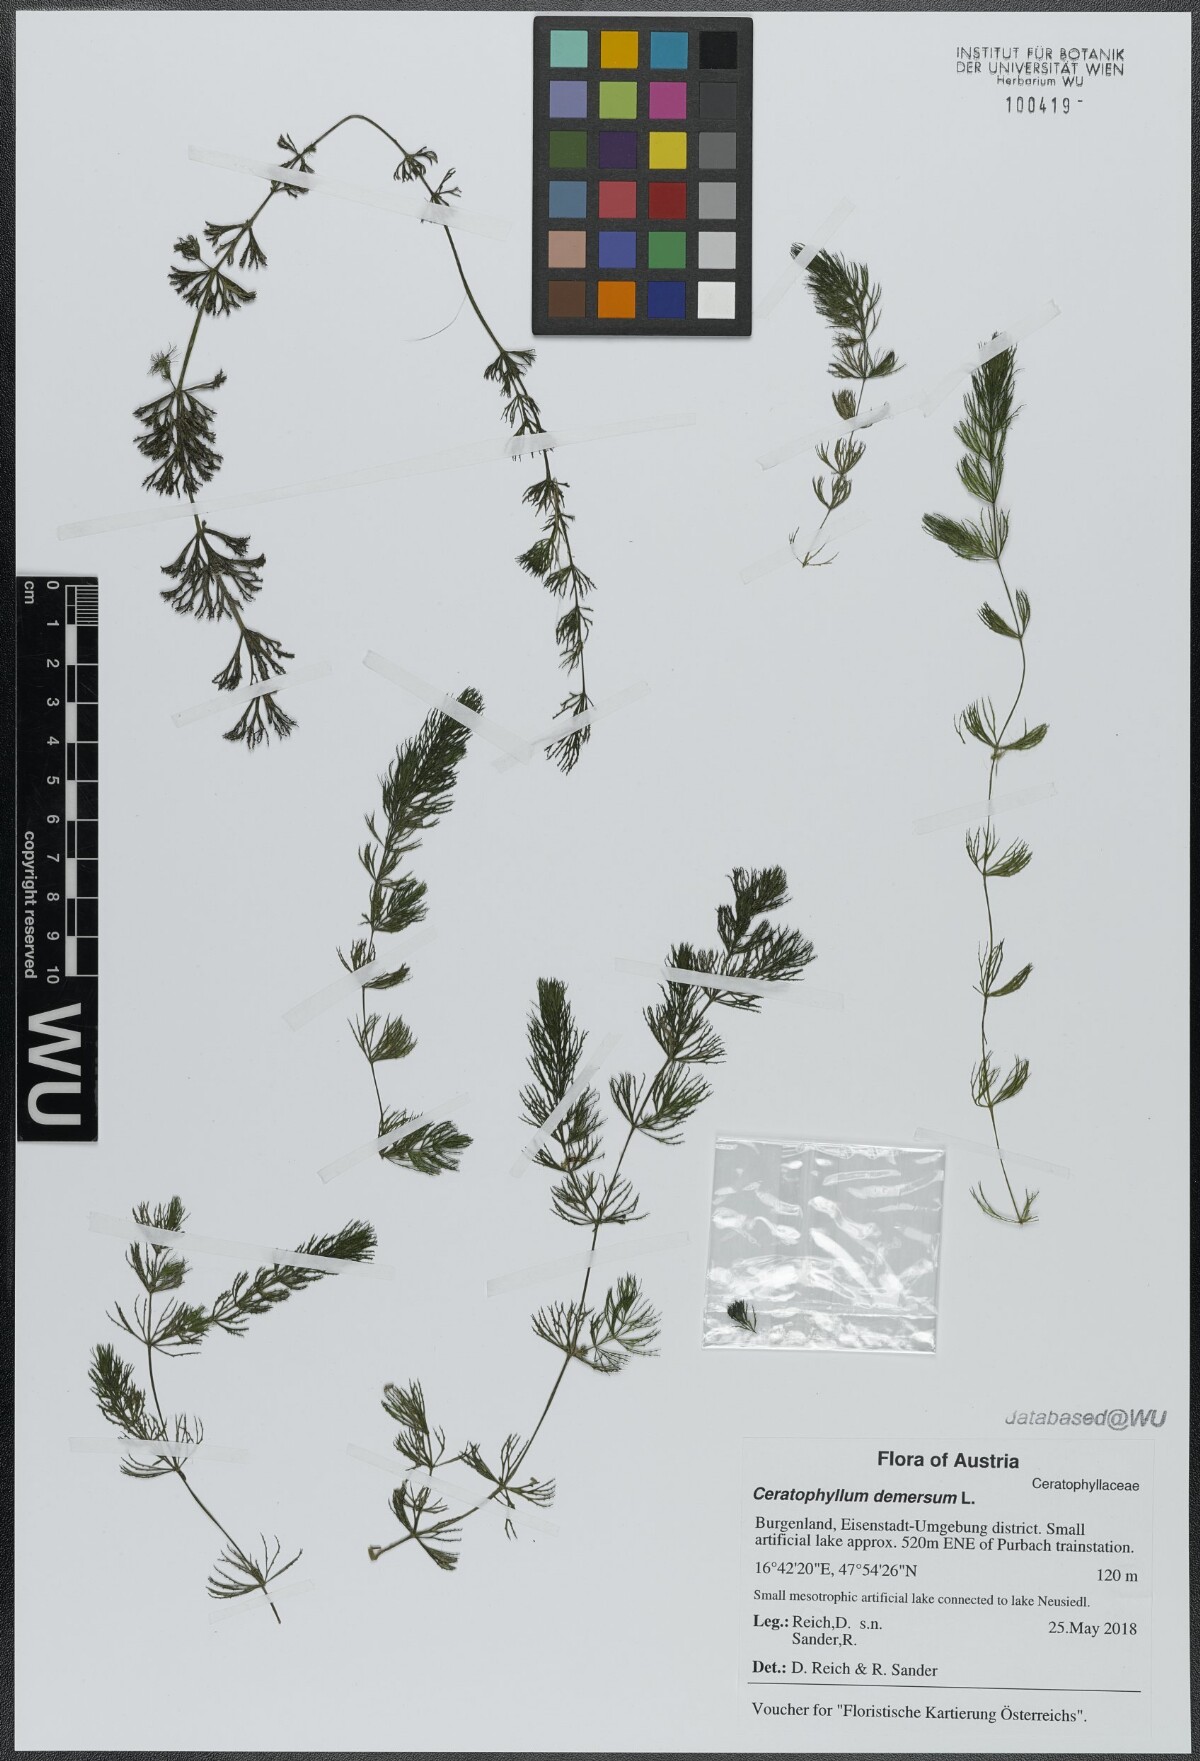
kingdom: Plantae
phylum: Tracheophyta
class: Magnoliopsida
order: Ceratophyllales
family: Ceratophyllaceae
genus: Ceratophyllum
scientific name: Ceratophyllum demersum
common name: Rigid hornwort
